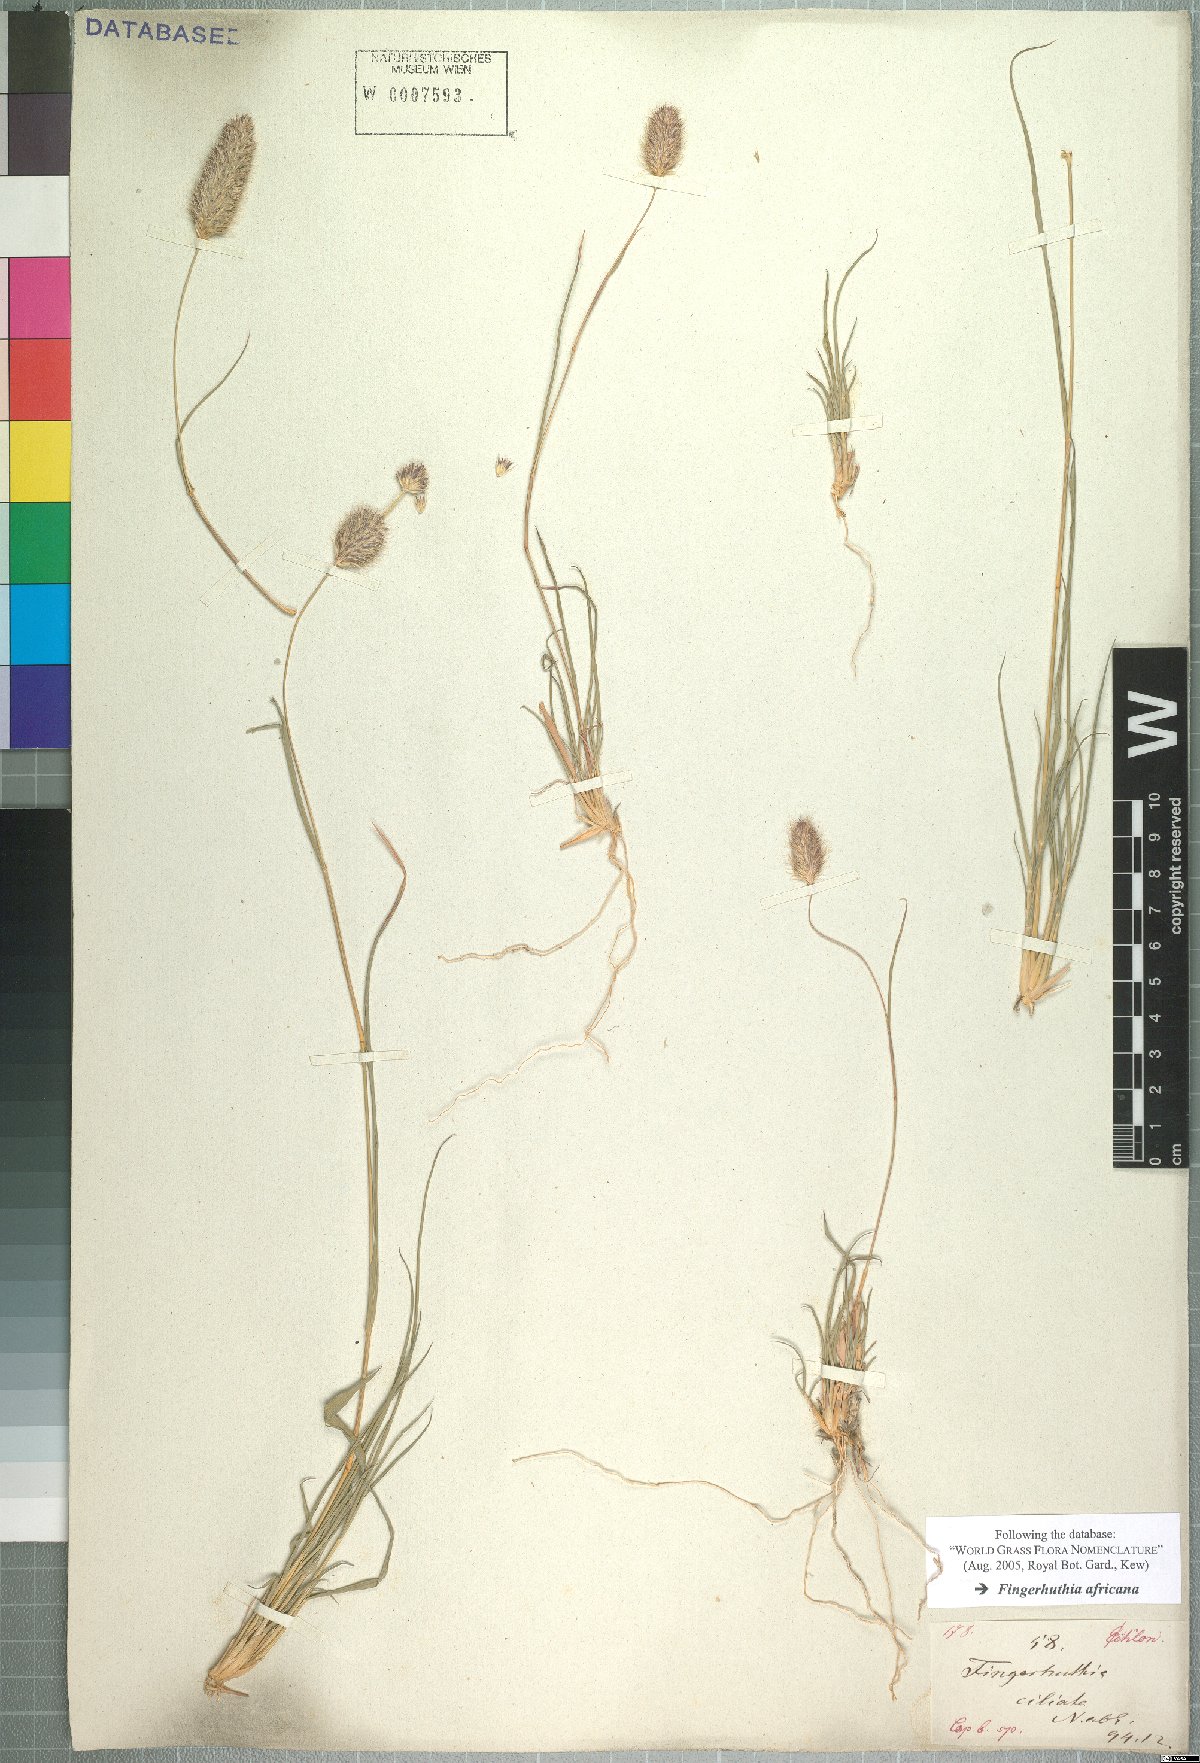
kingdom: Plantae
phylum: Tracheophyta
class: Liliopsida
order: Poales
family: Poaceae
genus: Fingerhuthia
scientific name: Fingerhuthia africana
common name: Zulu fescue
